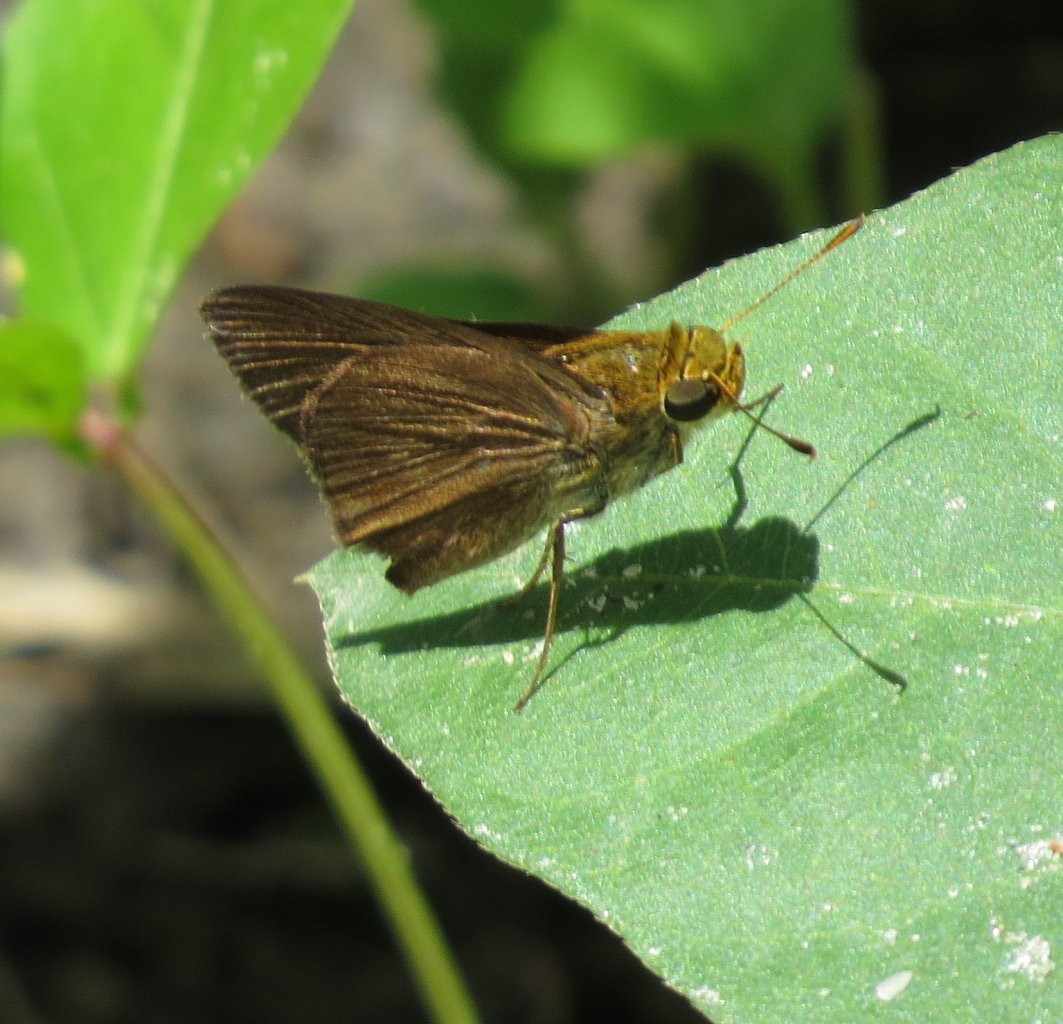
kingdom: Animalia
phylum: Arthropoda
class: Insecta
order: Lepidoptera
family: Hesperiidae
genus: Euphyes
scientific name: Euphyes vestris
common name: Dun Skipper
